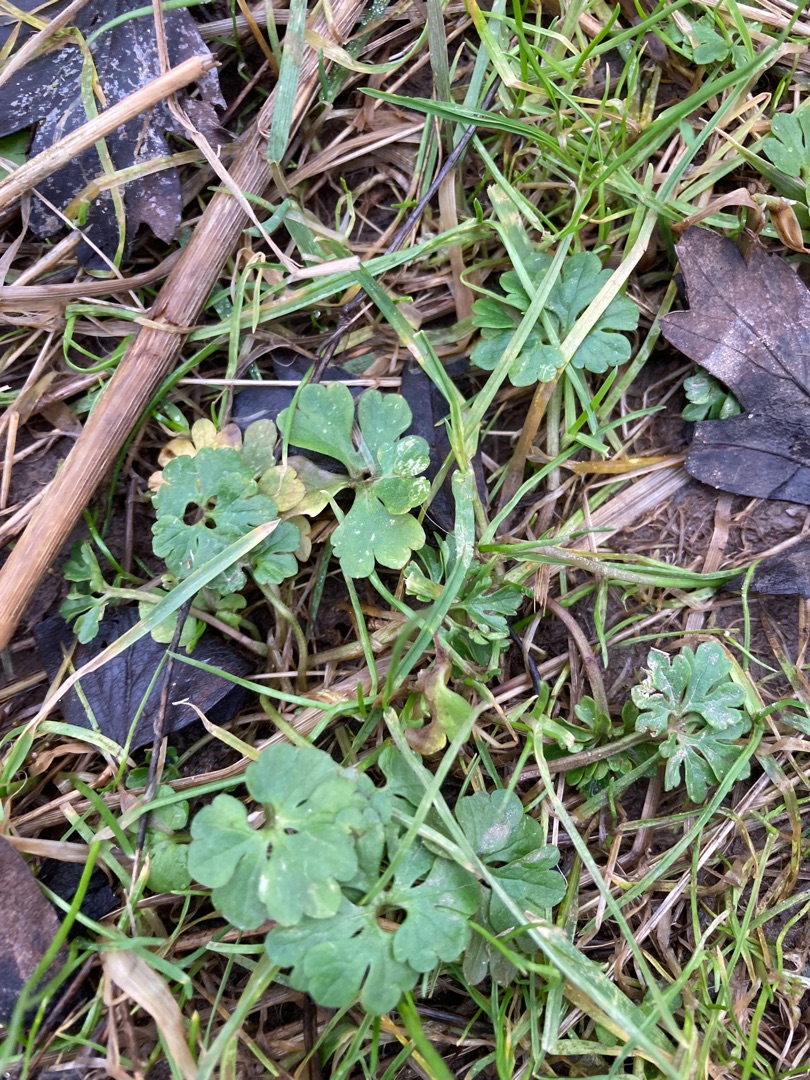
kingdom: Plantae
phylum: Tracheophyta
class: Magnoliopsida
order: Ranunculales
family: Ranunculaceae
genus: Ranunculus
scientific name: Ranunculus auricomus
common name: Nyrebladet ranunkel
